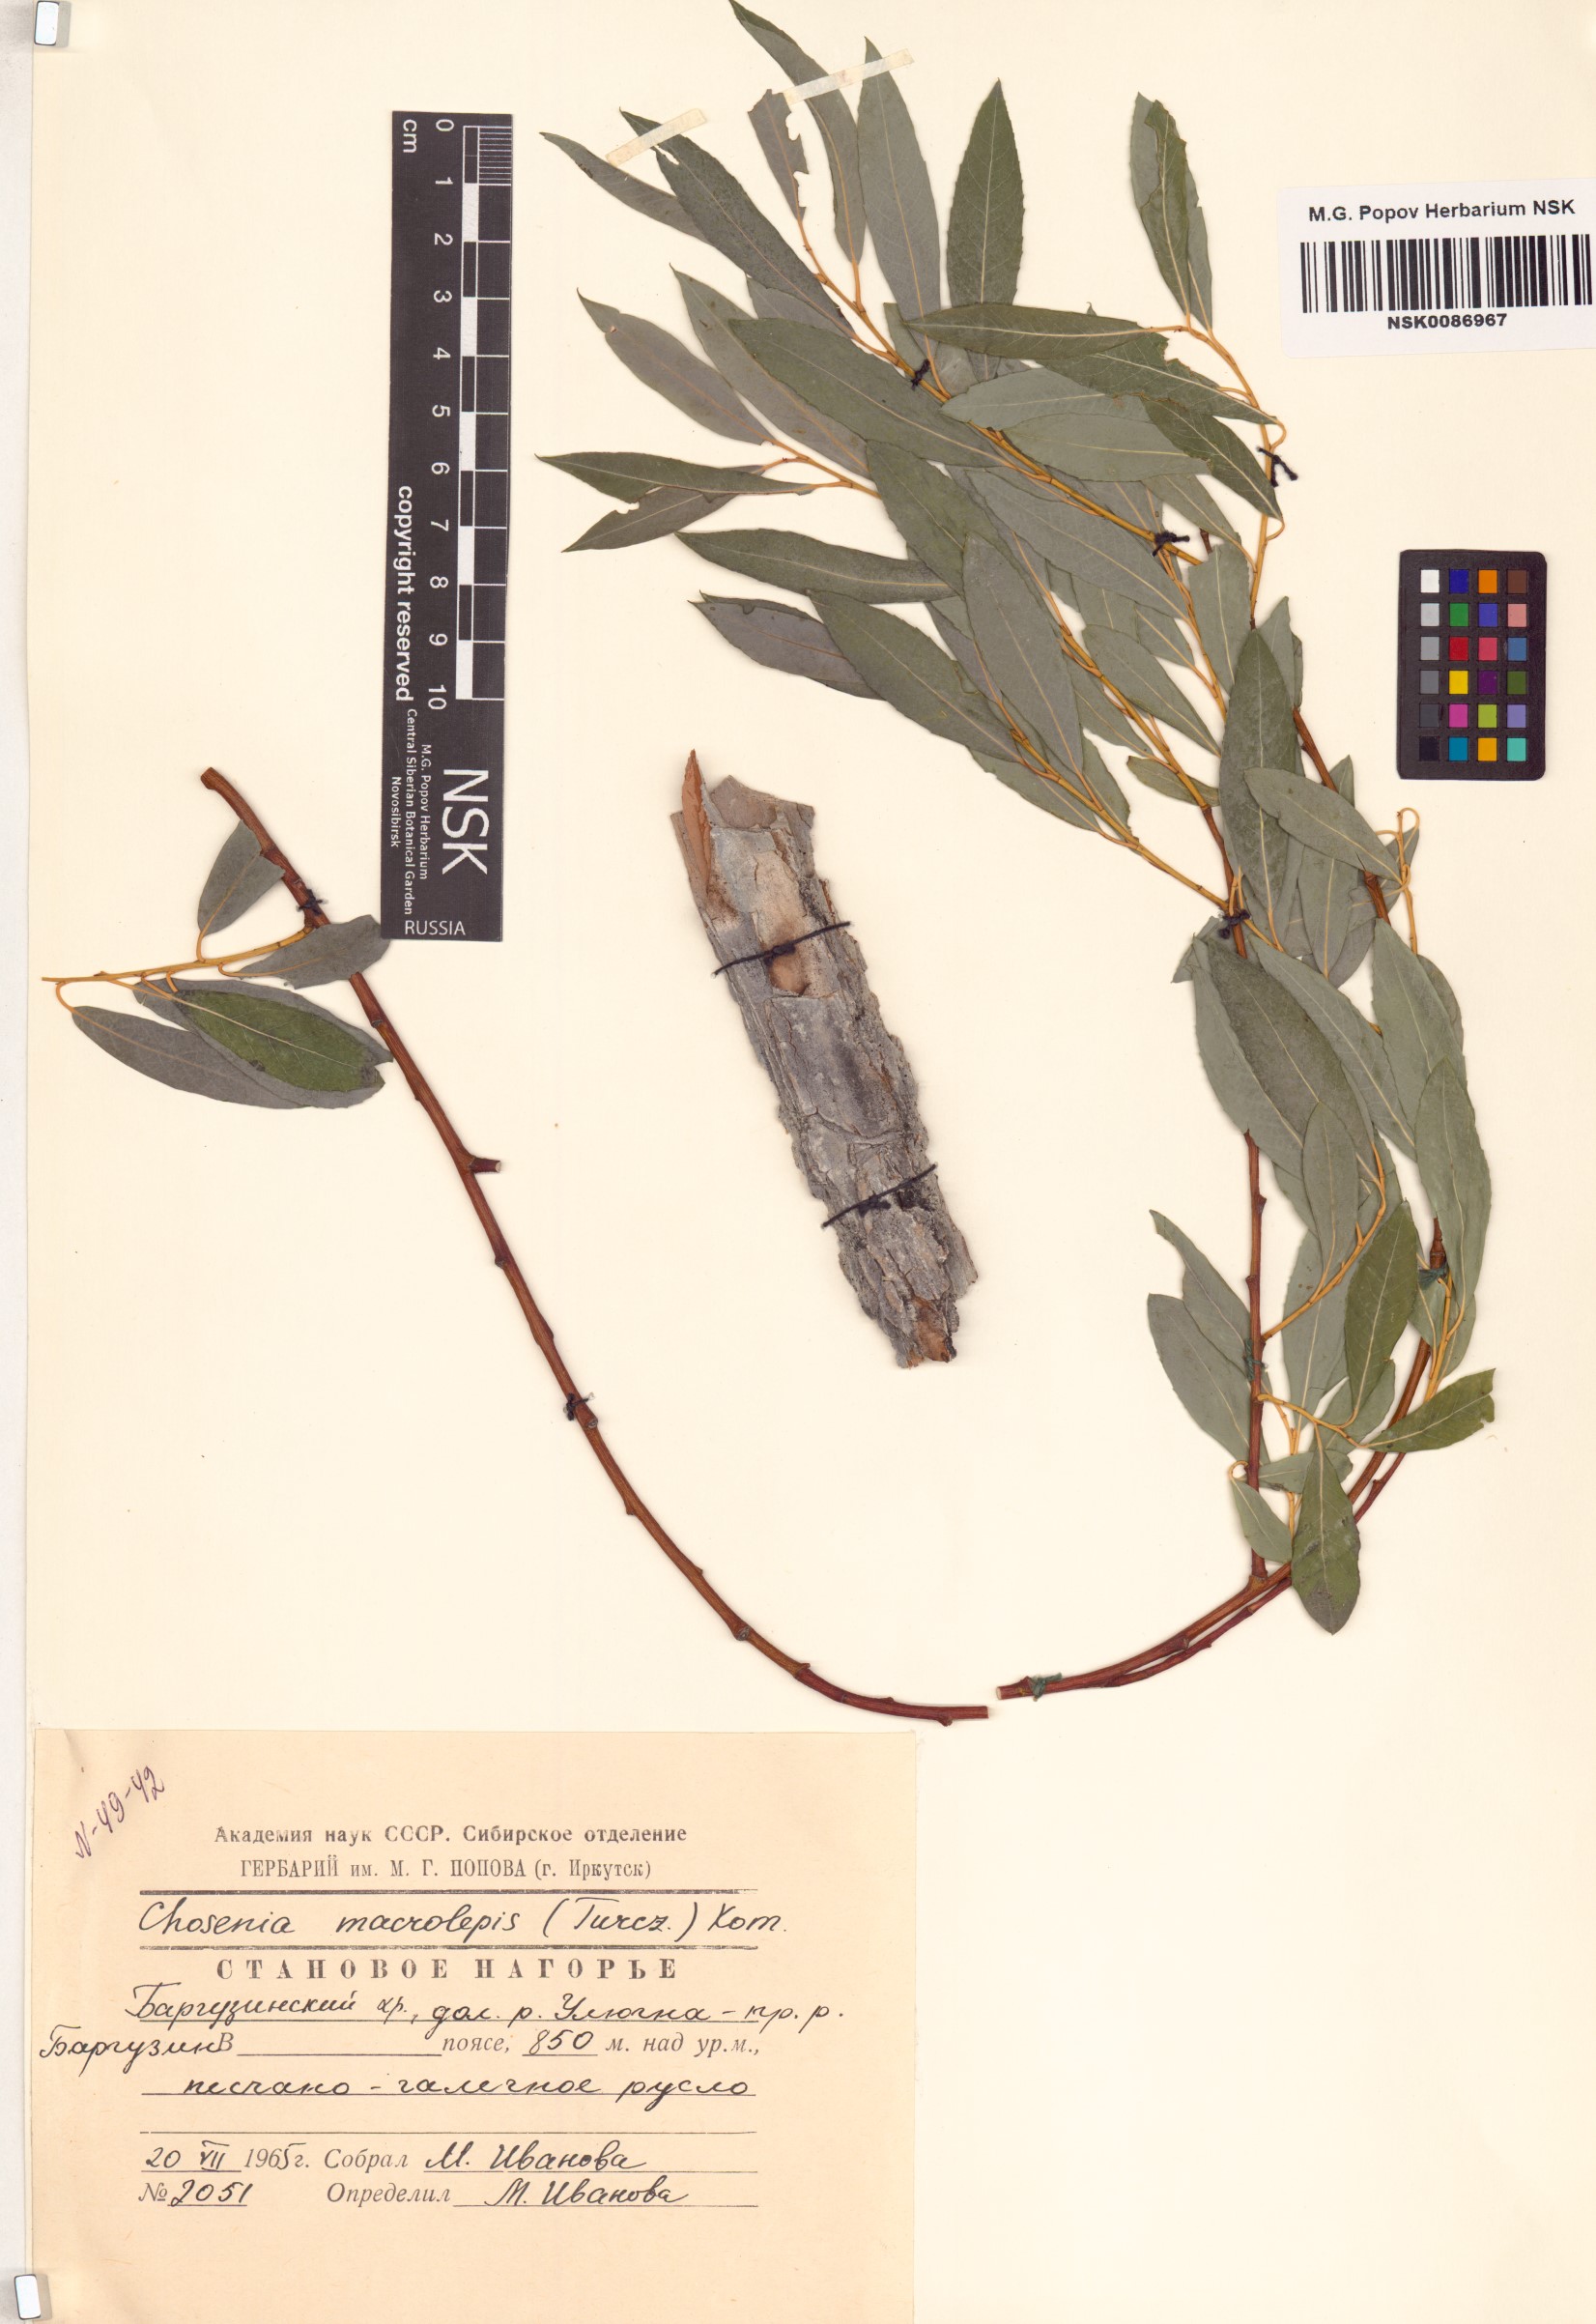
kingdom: Plantae
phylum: Tracheophyta
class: Magnoliopsida
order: Malpighiales
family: Salicaceae
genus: Chosenia
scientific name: Chosenia arbutifolia
